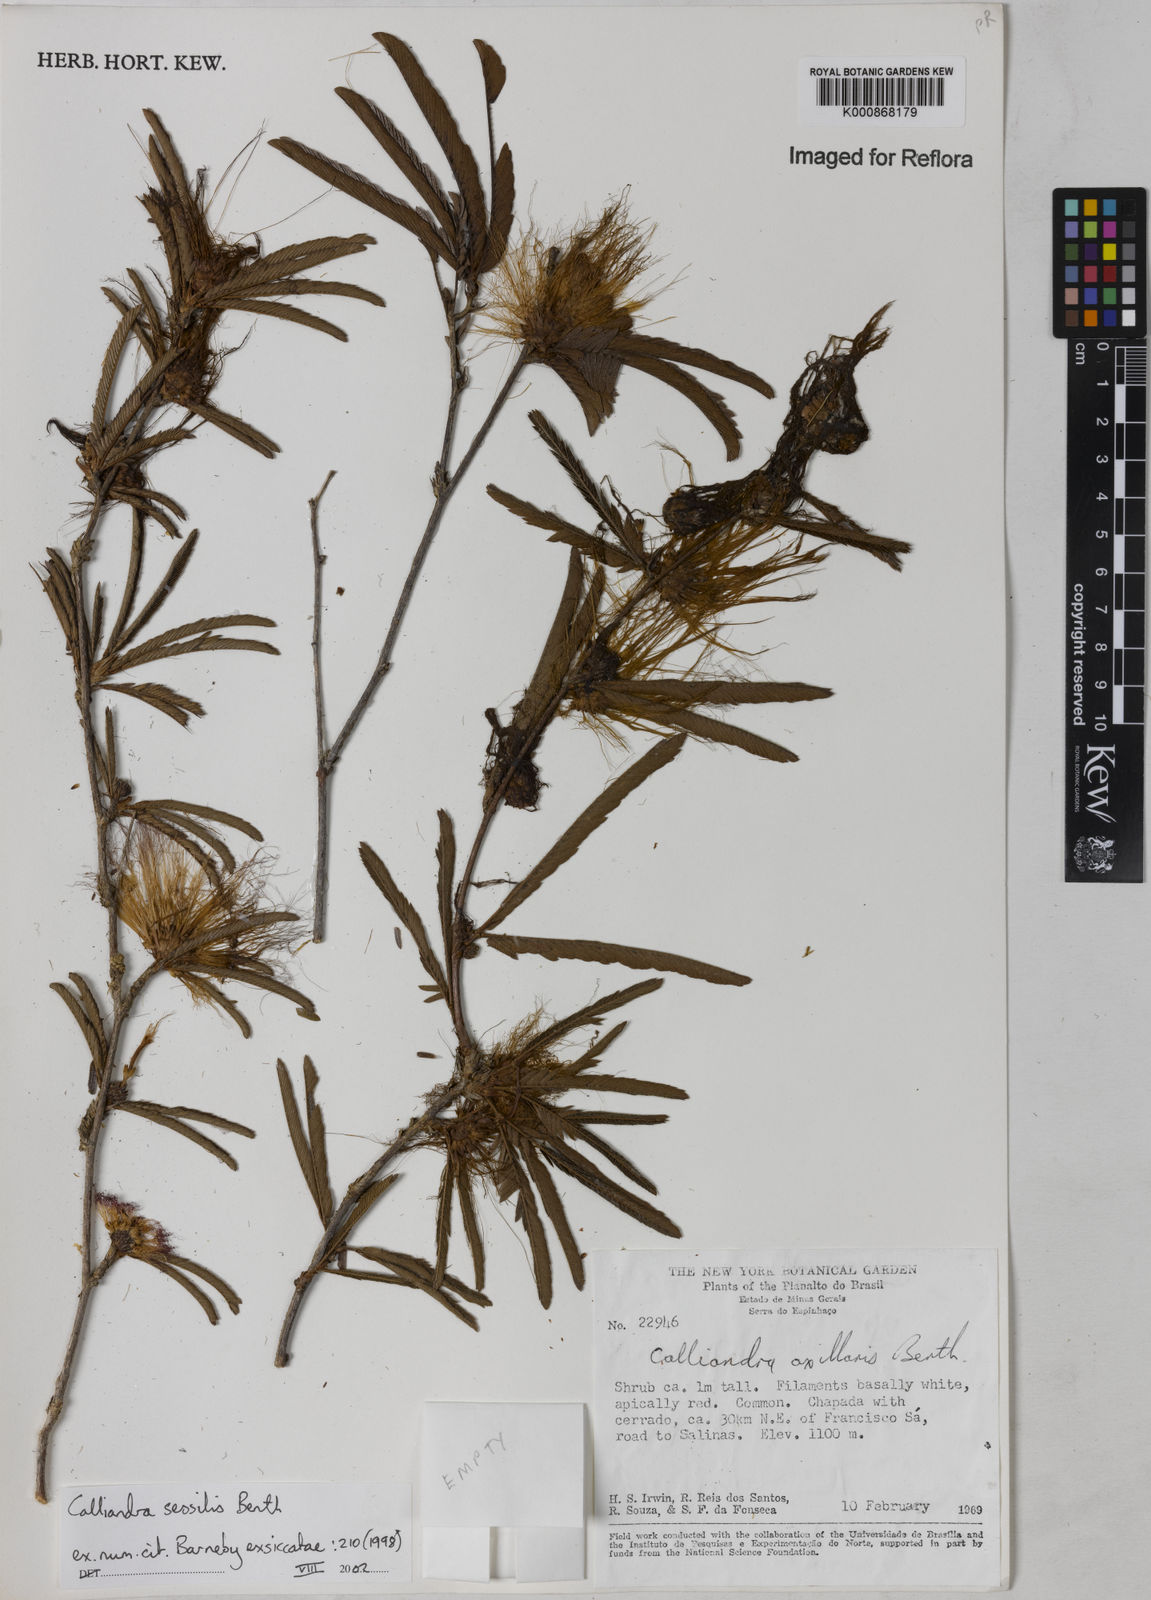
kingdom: Plantae
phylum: Tracheophyta
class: Magnoliopsida
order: Fabales
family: Fabaceae
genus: Calliandra
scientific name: Calliandra sessilis
